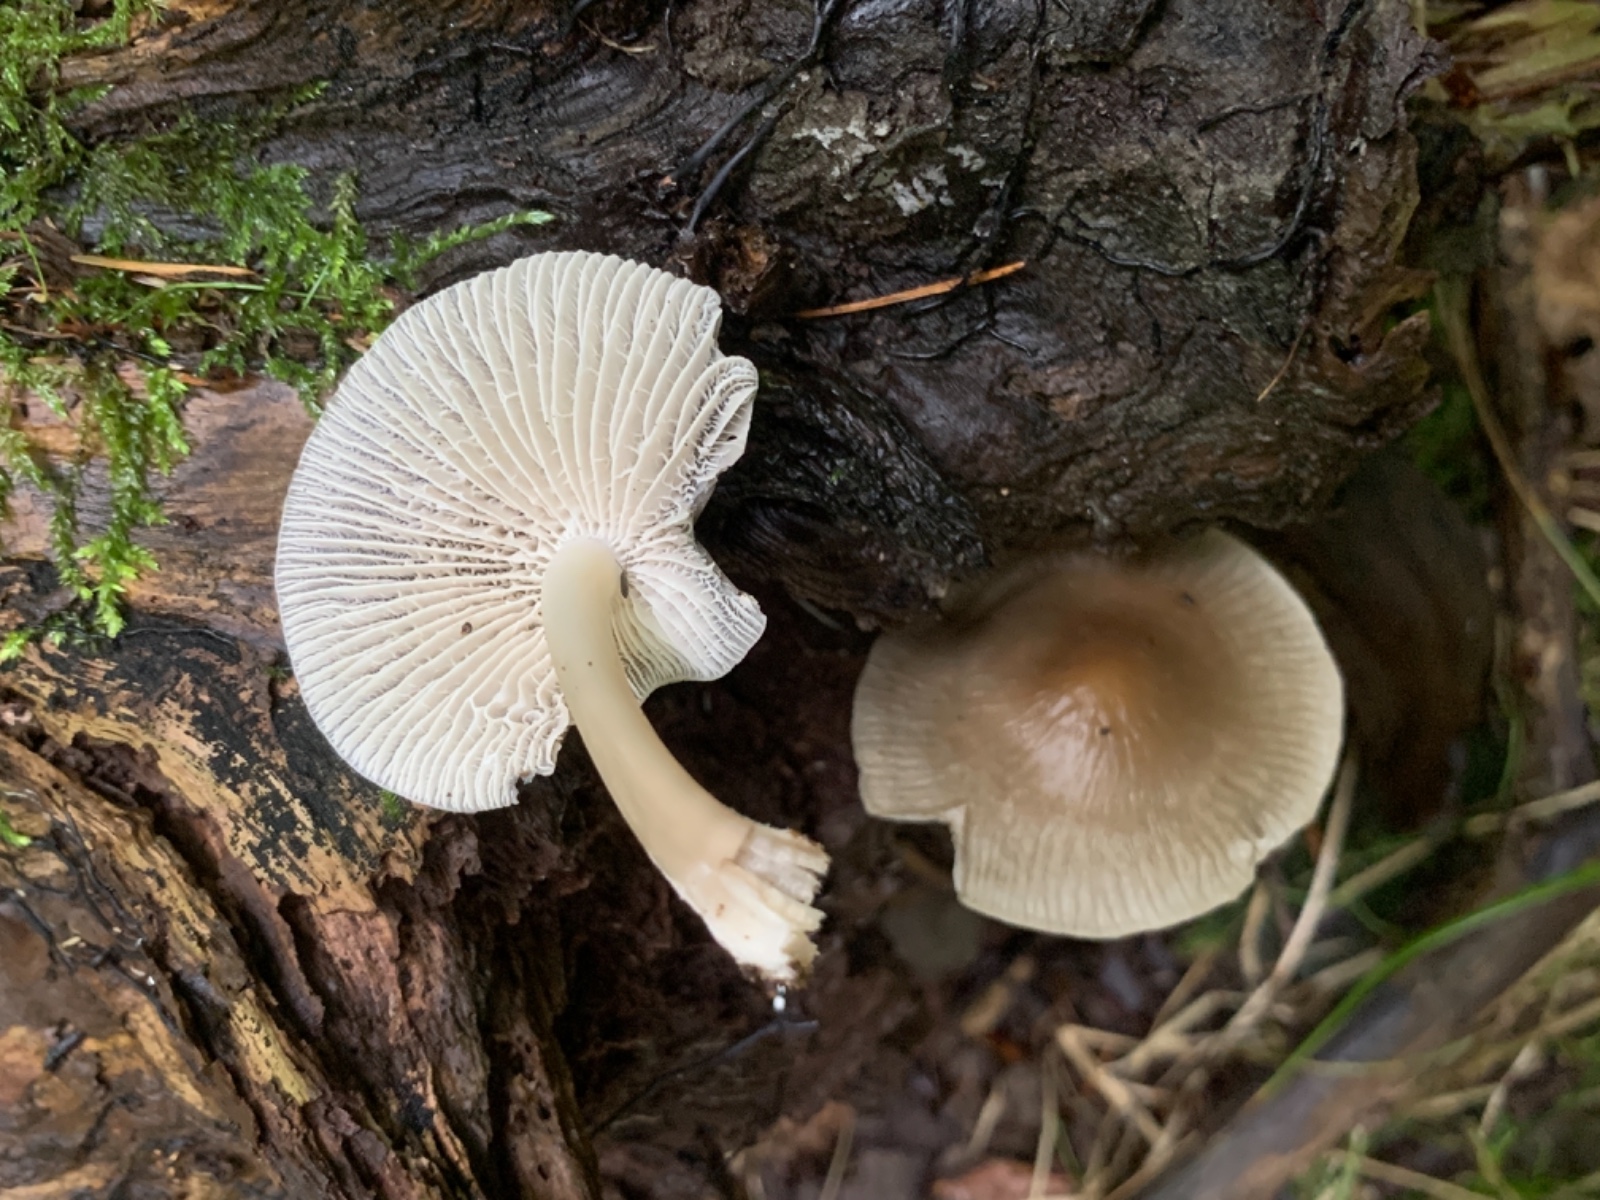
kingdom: Fungi
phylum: Basidiomycota
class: Agaricomycetes
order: Agaricales
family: Mycenaceae
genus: Mycena
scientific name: Mycena galericulata
